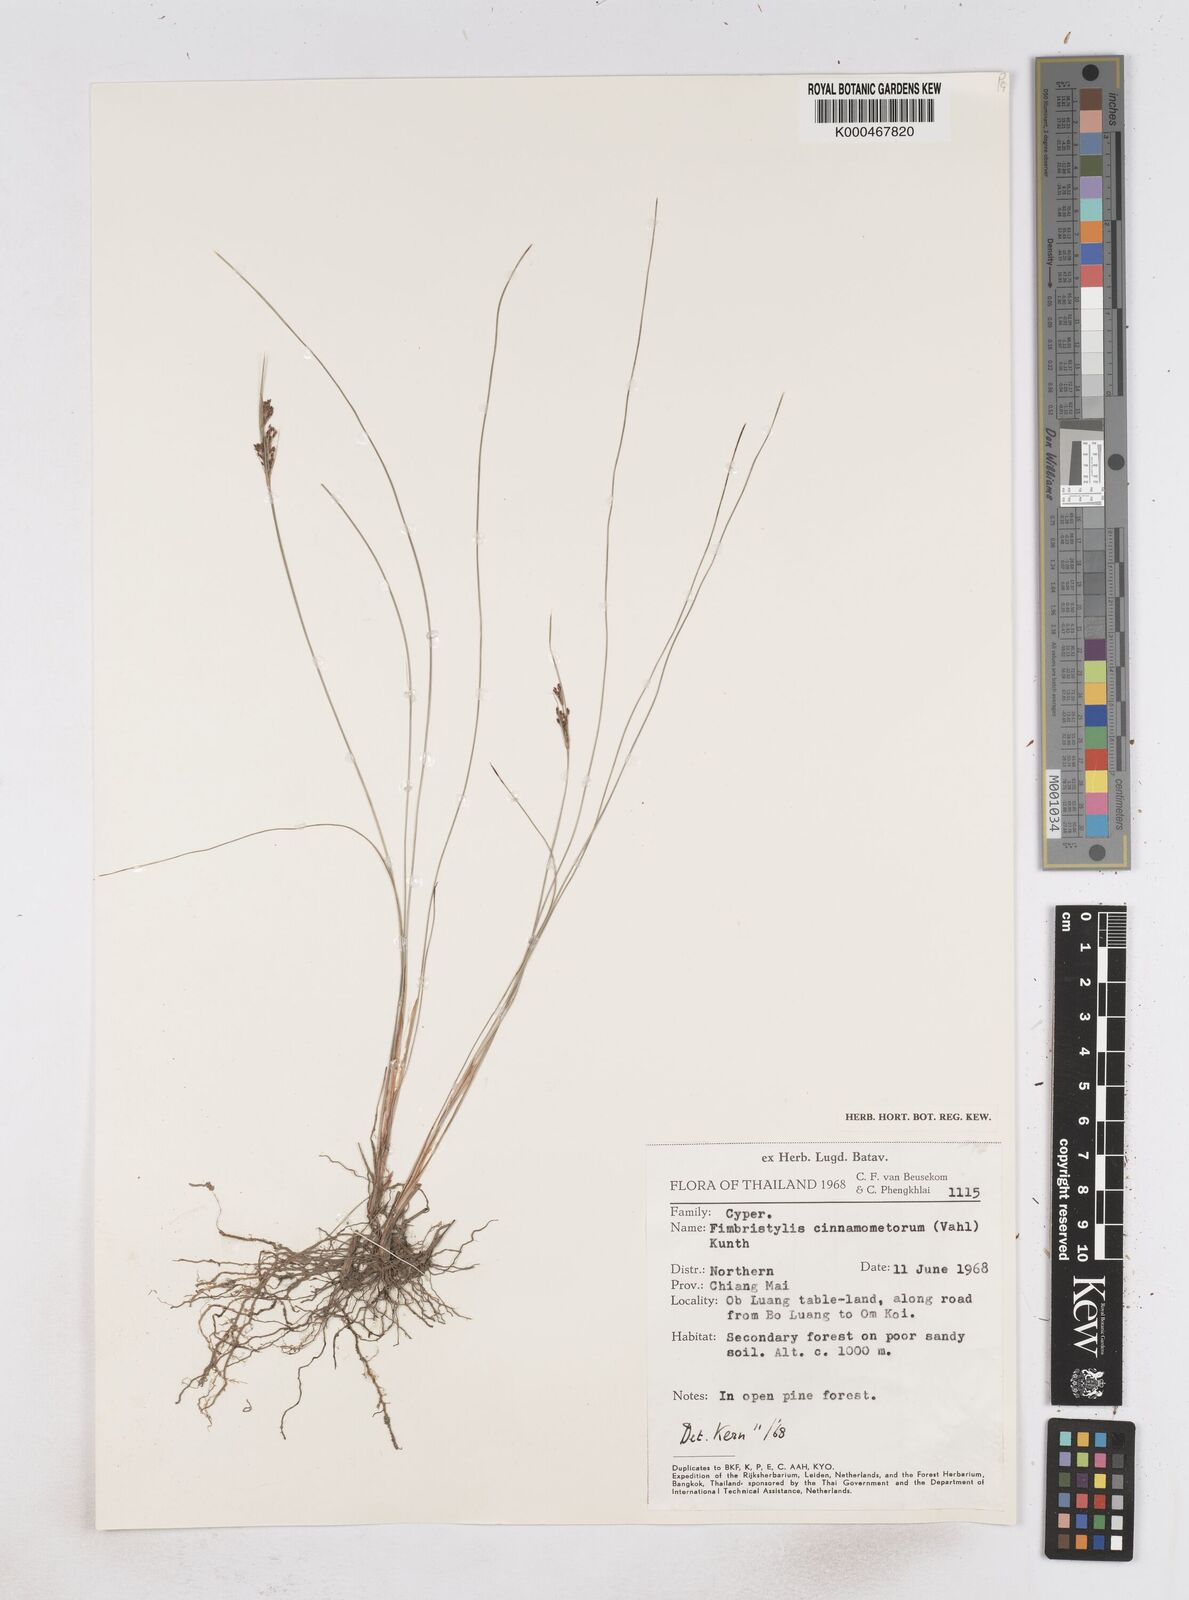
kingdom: Plantae
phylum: Tracheophyta
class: Liliopsida
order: Poales
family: Cyperaceae
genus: Fimbristylis
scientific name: Fimbristylis cinnamometorum
